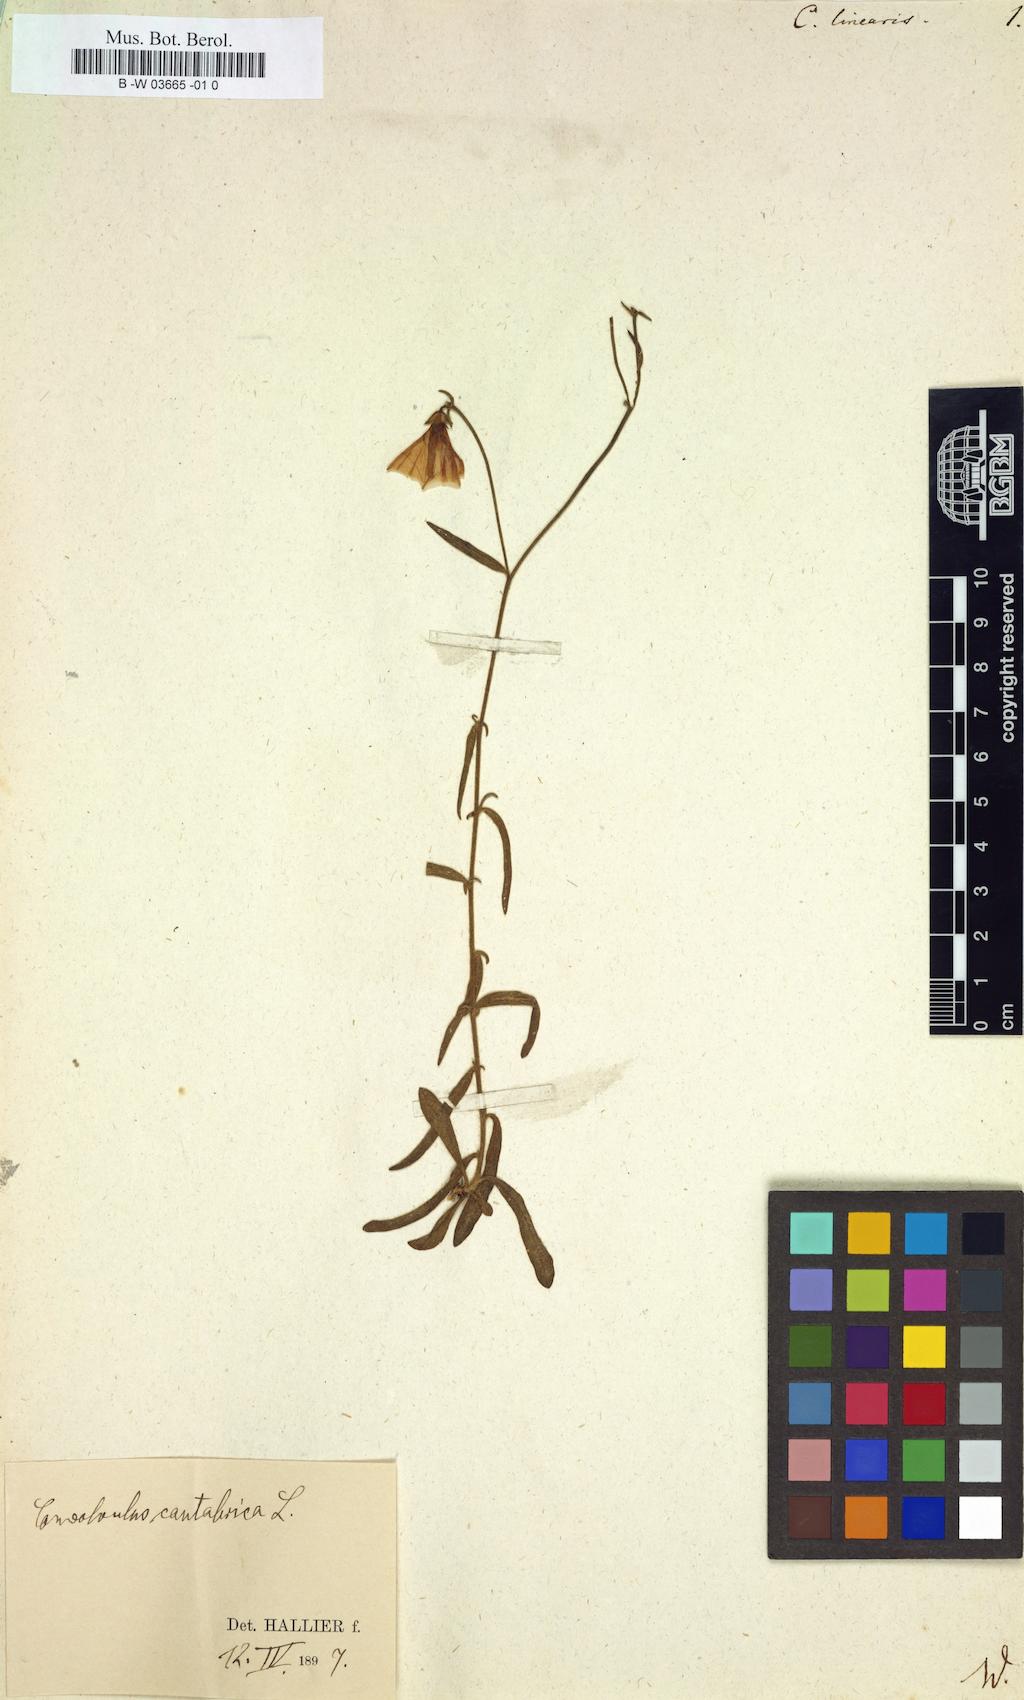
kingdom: Plantae
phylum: Tracheophyta
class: Magnoliopsida
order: Solanales
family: Convolvulaceae
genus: Convolvulus
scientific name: Convolvulus
